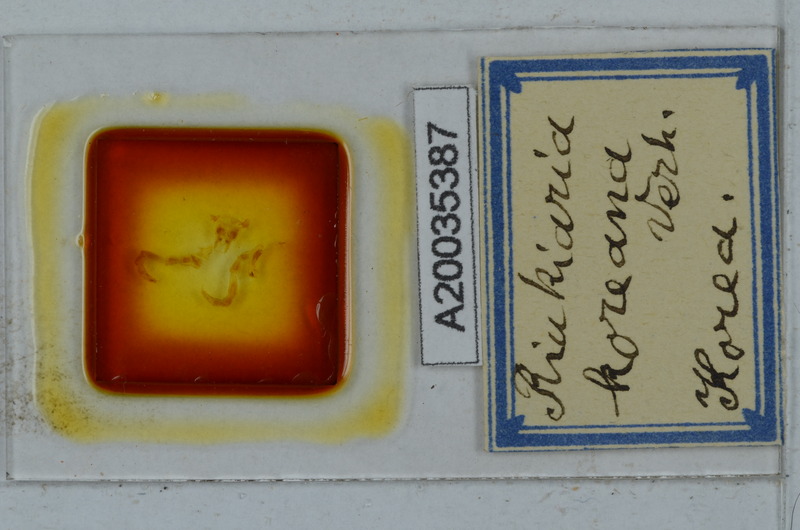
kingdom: Animalia
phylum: Arthropoda
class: Diplopoda
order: Polydesmida
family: Xystodesmidae
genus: Riukiaria
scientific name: Riukiaria
